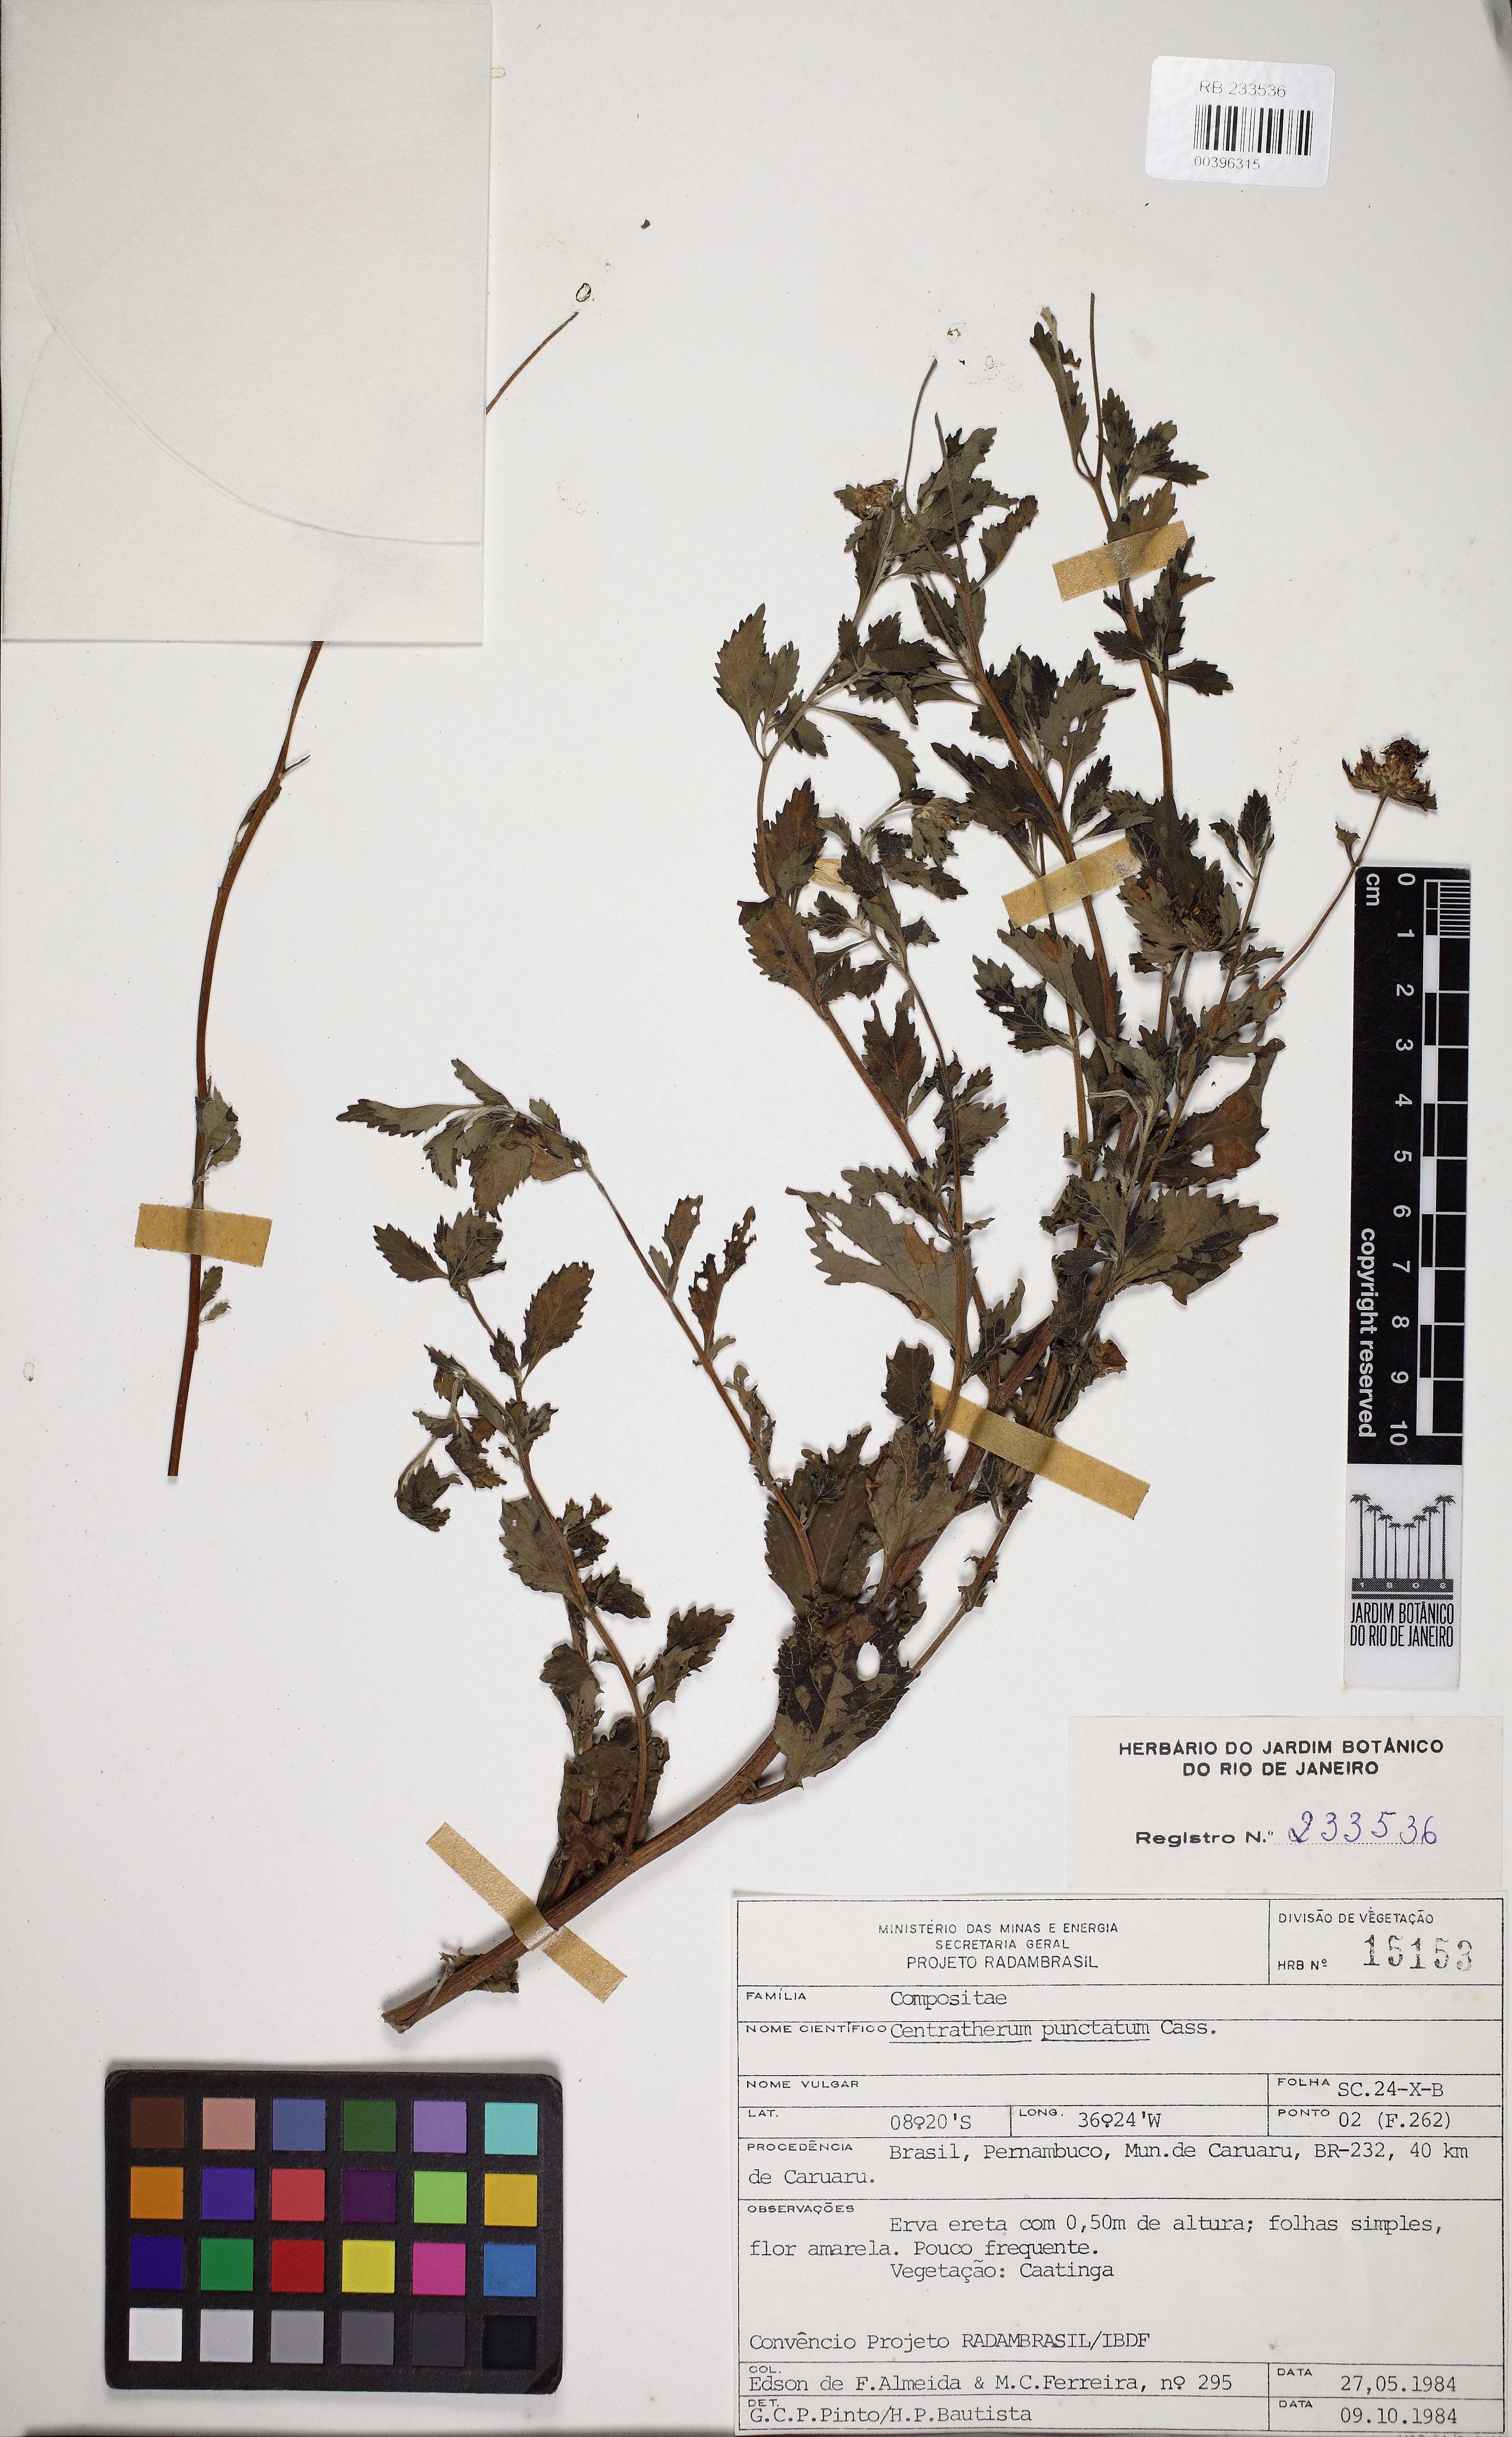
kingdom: Plantae
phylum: Tracheophyta
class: Magnoliopsida
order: Asterales
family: Asteraceae
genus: Centratherum
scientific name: Centratherum punctatum
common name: Larkdaisy
